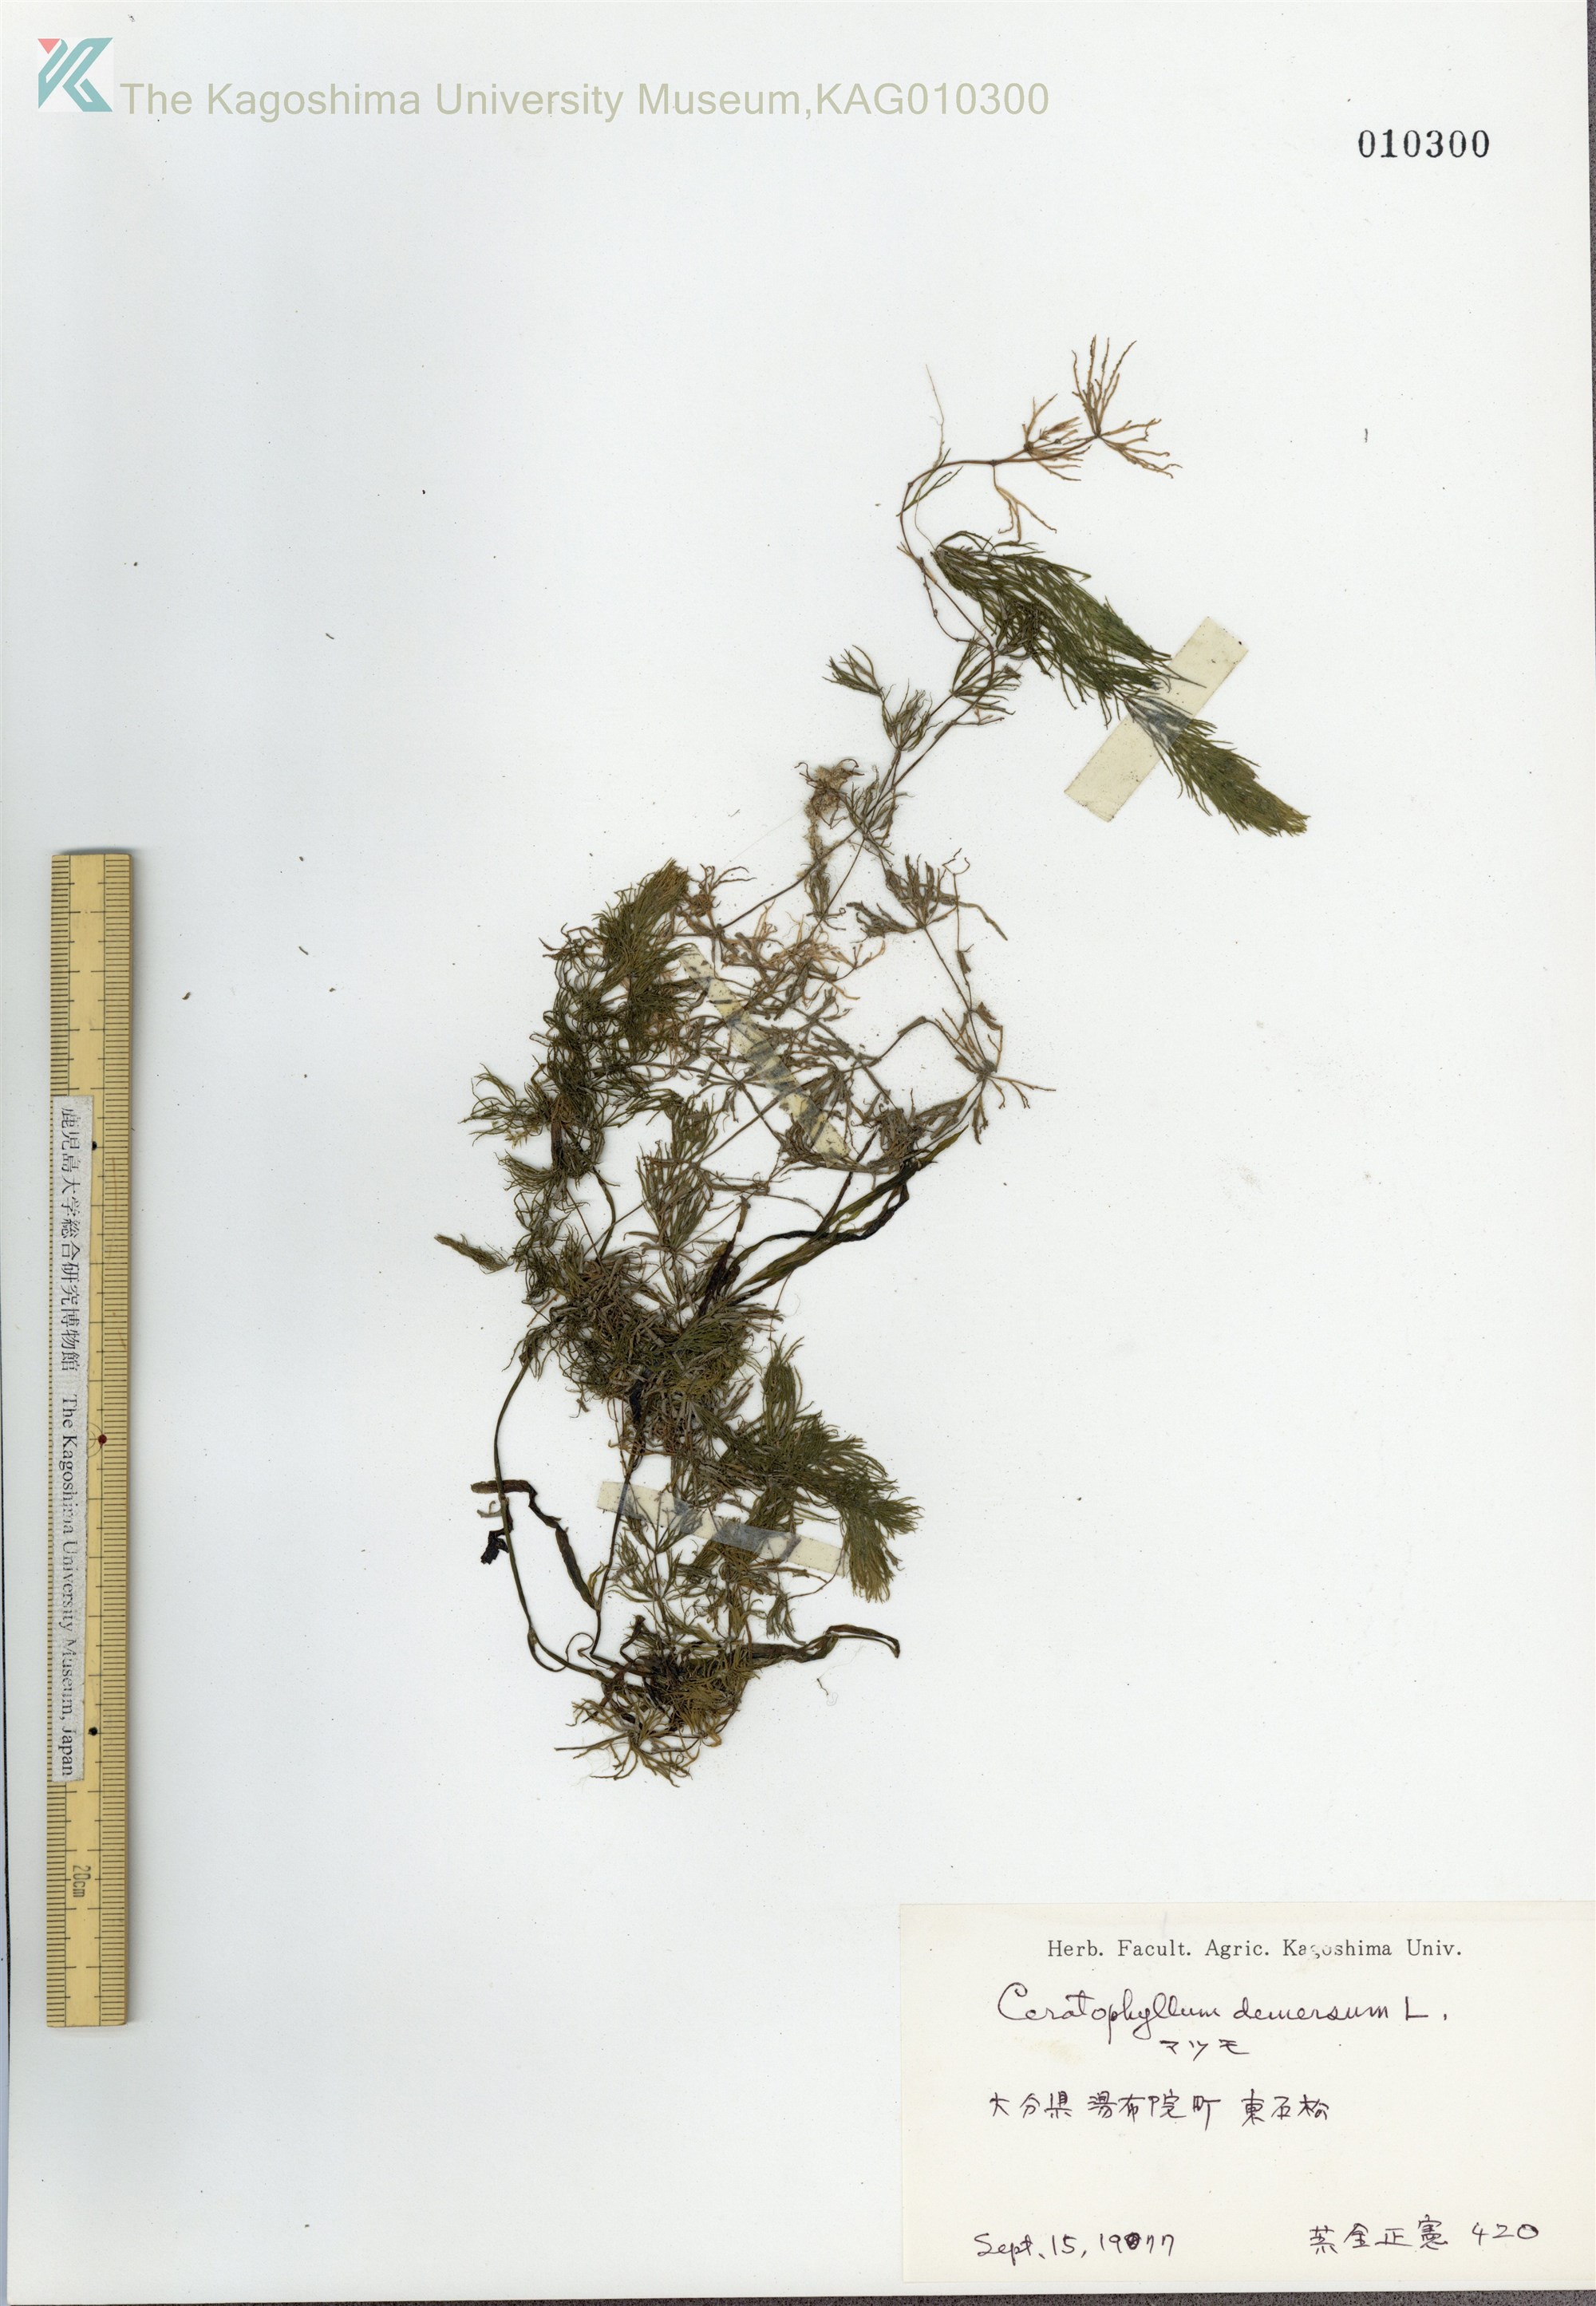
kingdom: Plantae
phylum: Tracheophyta
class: Magnoliopsida
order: Ceratophyllales
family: Ceratophyllaceae
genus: Ceratophyllum
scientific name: Ceratophyllum demersum
